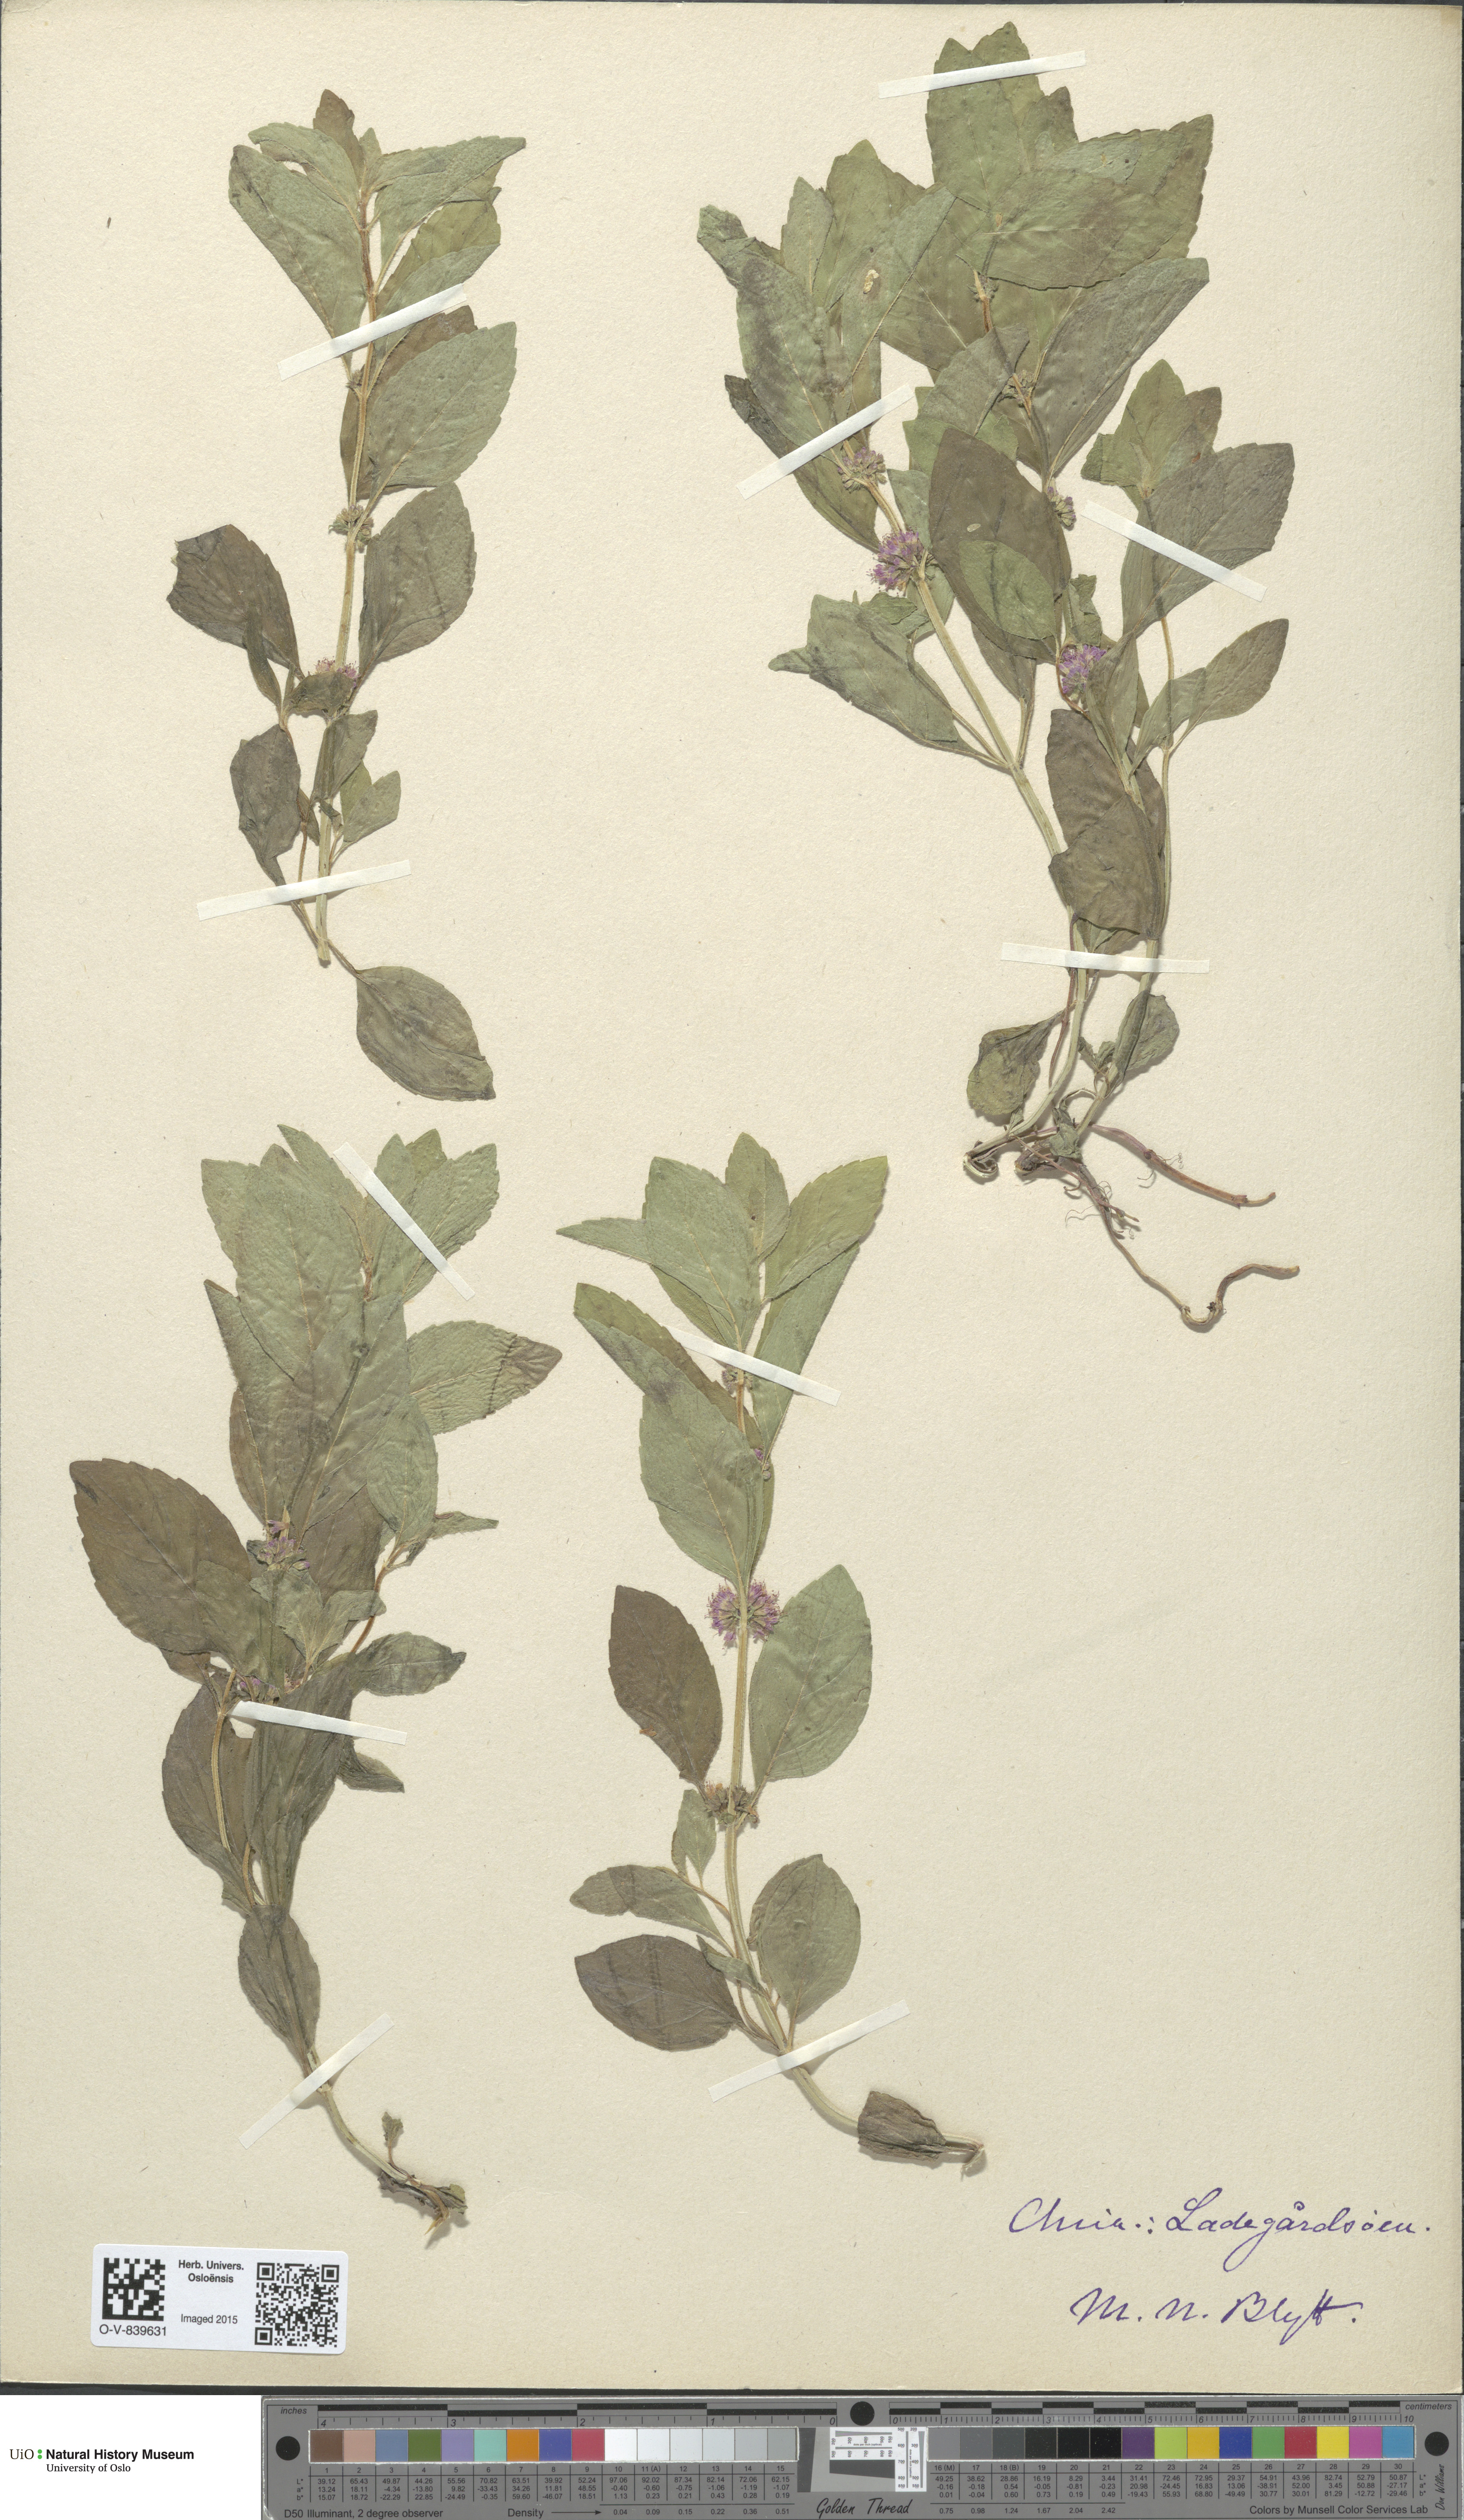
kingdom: Plantae
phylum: Tracheophyta
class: Magnoliopsida
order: Lamiales
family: Lamiaceae
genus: Mentha
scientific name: Mentha arvensis
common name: Corn mint
